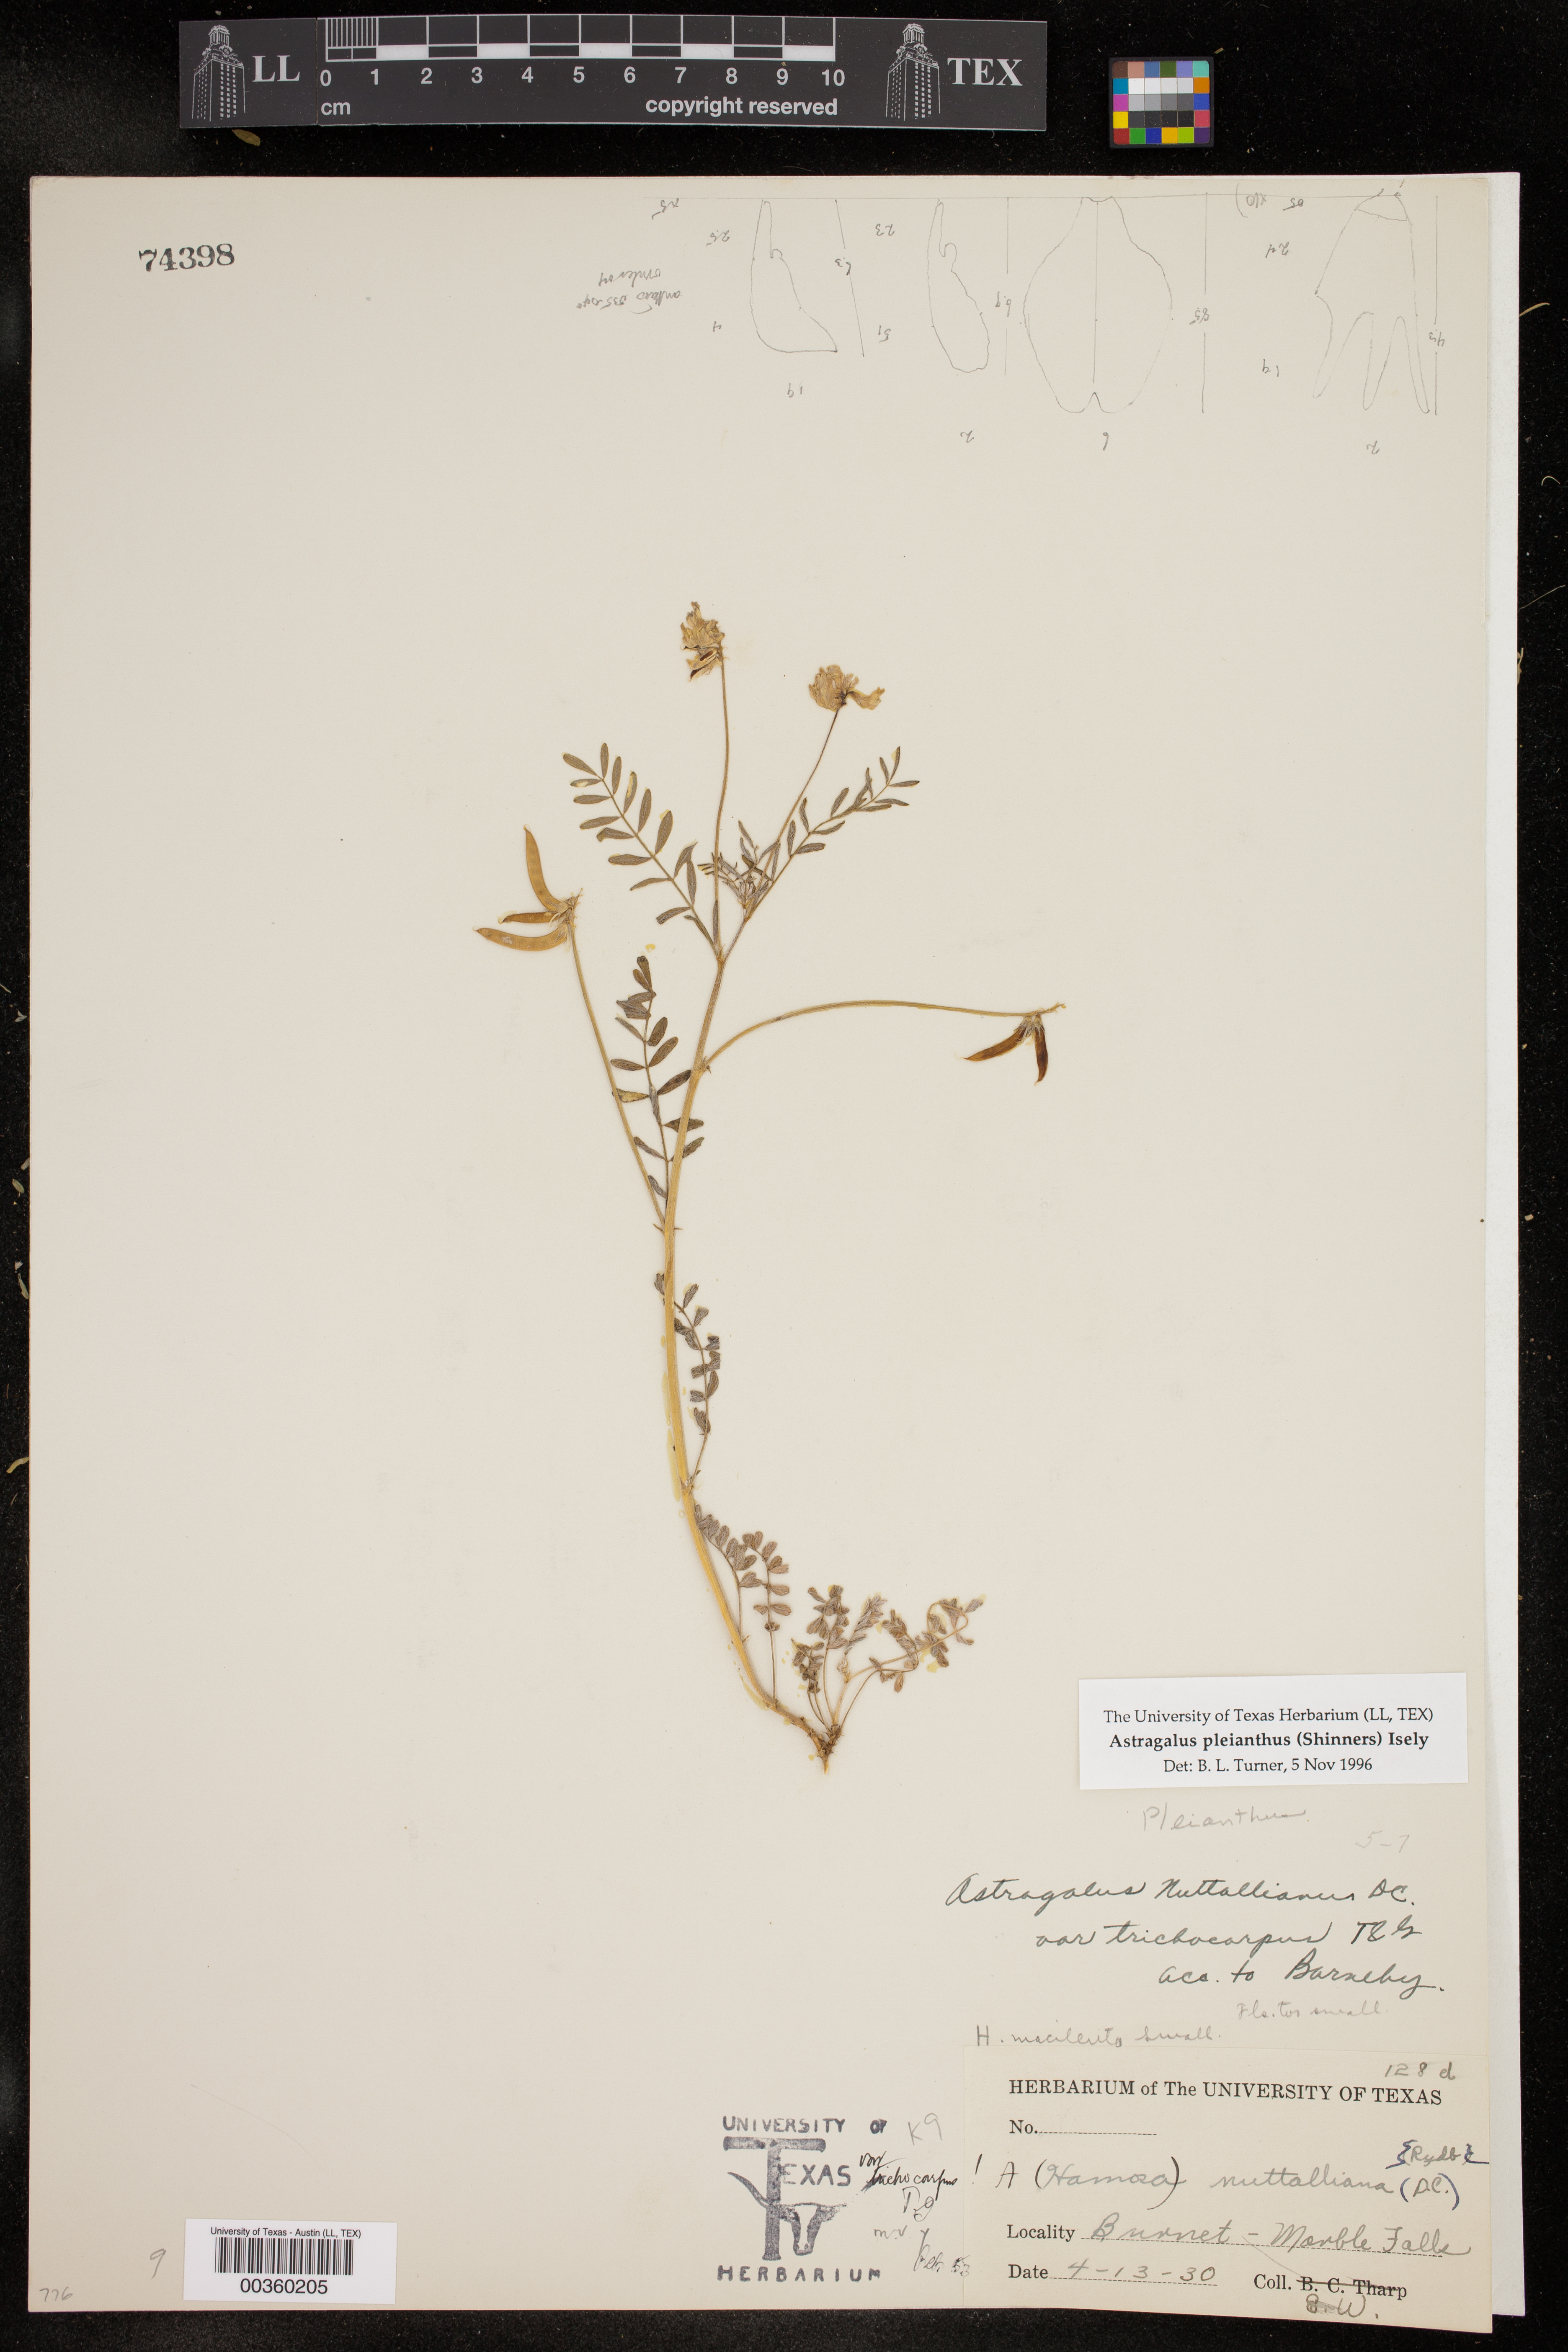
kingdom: Plantae
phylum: Tracheophyta
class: Magnoliopsida
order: Fabales
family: Fabaceae
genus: Astragalus
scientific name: Astragalus pleianthus
